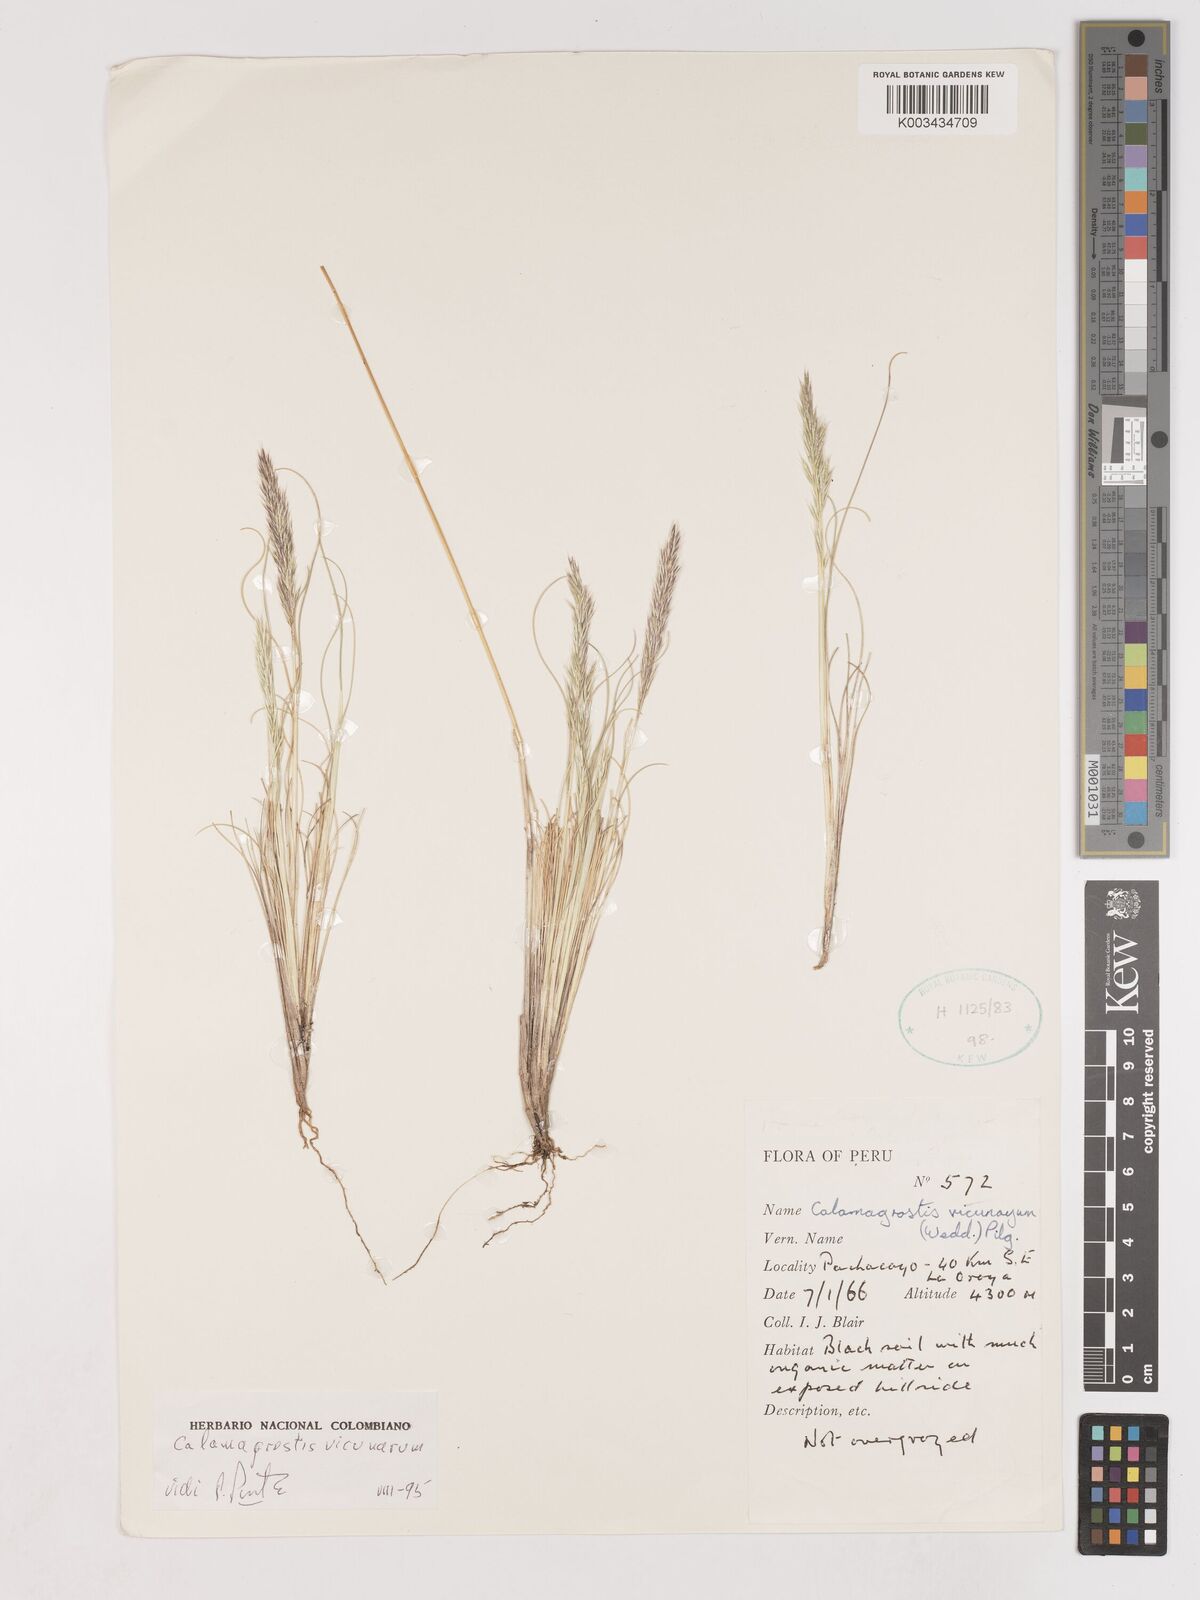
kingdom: Plantae
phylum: Tracheophyta
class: Liliopsida
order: Poales
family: Poaceae
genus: Cinnagrostis
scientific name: Cinnagrostis vicunarum
